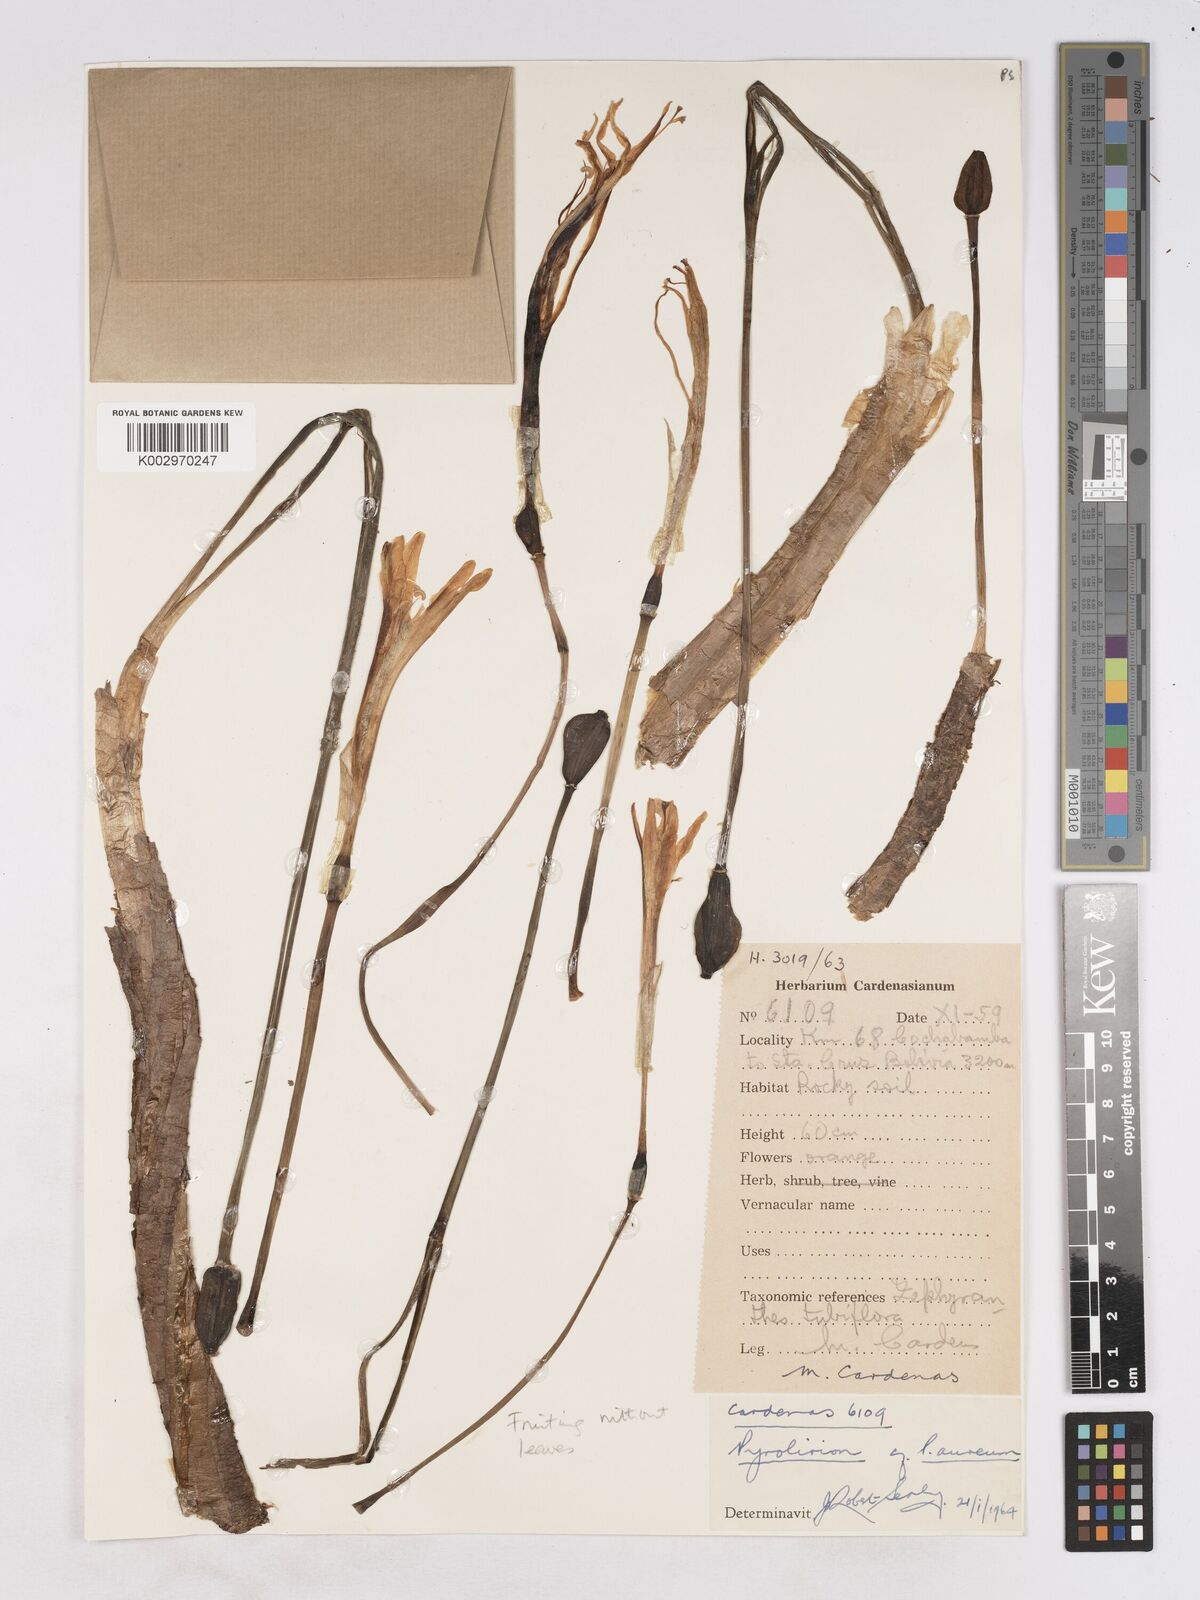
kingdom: Plantae
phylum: Tracheophyta
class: Liliopsida
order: Asparagales
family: Amaryllidaceae
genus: Pyrolirion
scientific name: Pyrolirion arvense
